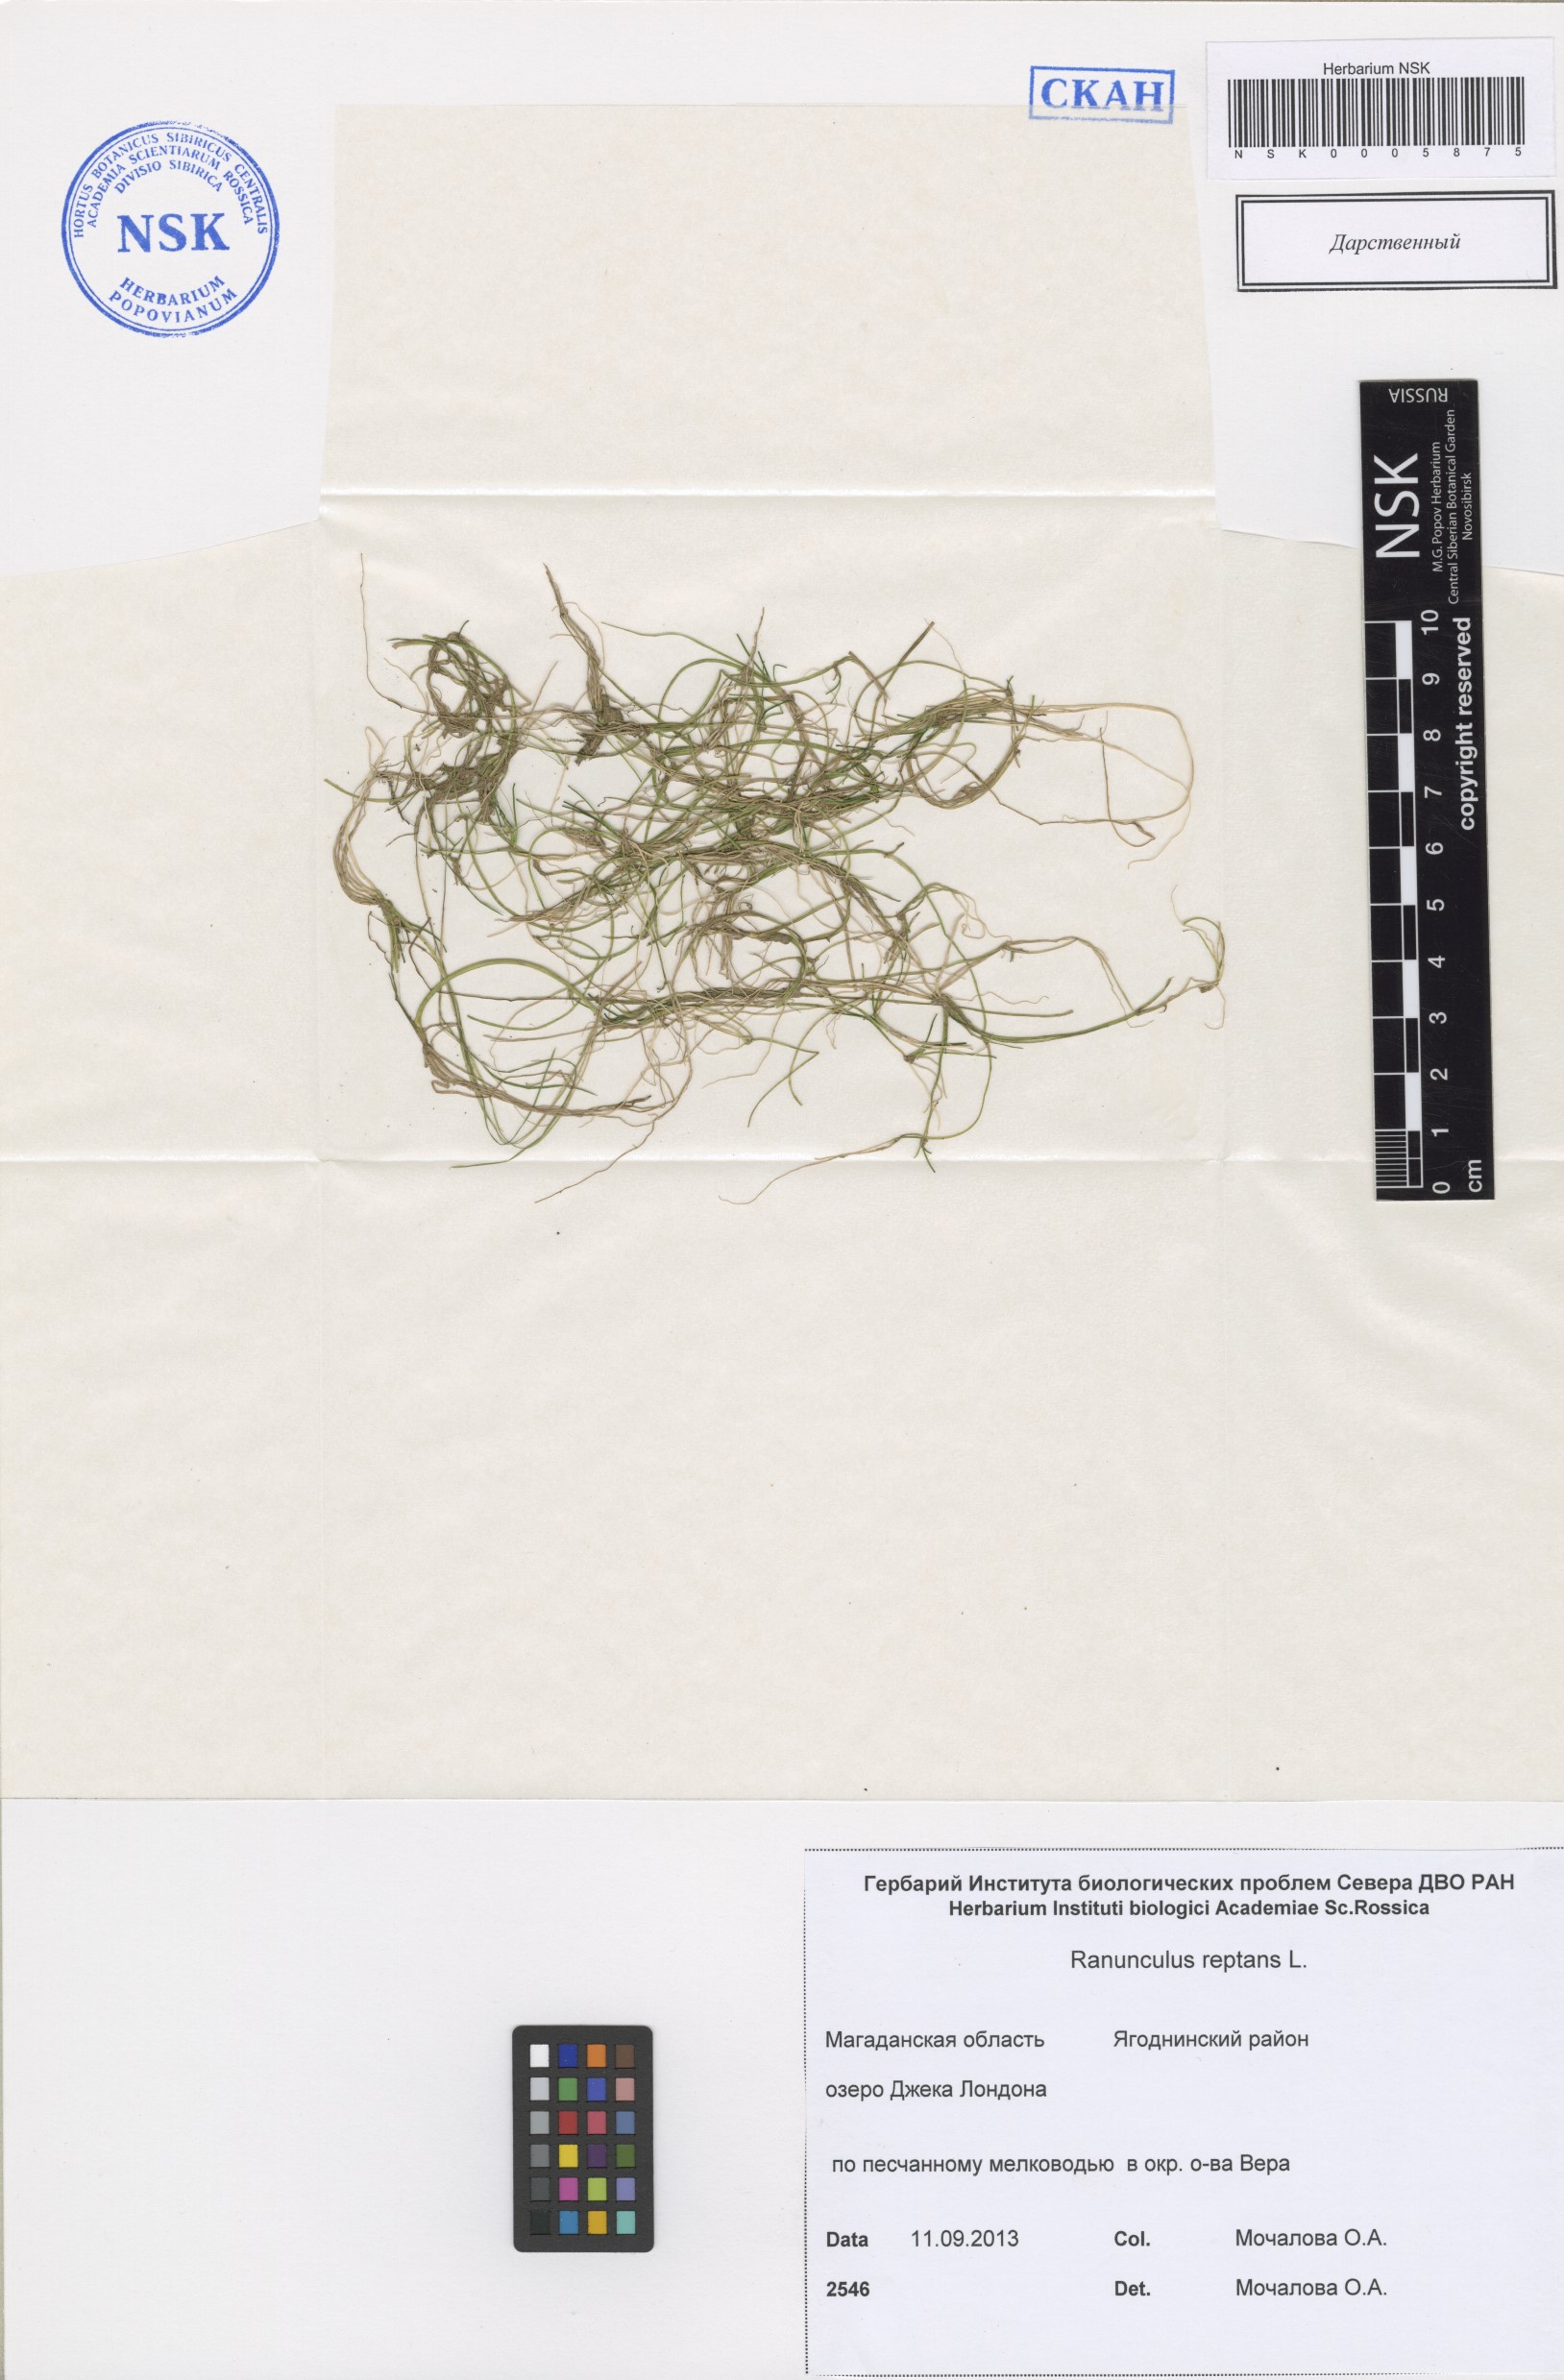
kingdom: Plantae
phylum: Tracheophyta
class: Magnoliopsida
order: Ranunculales
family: Ranunculaceae
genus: Ranunculus
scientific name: Ranunculus reptans
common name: Creeping spearwort
